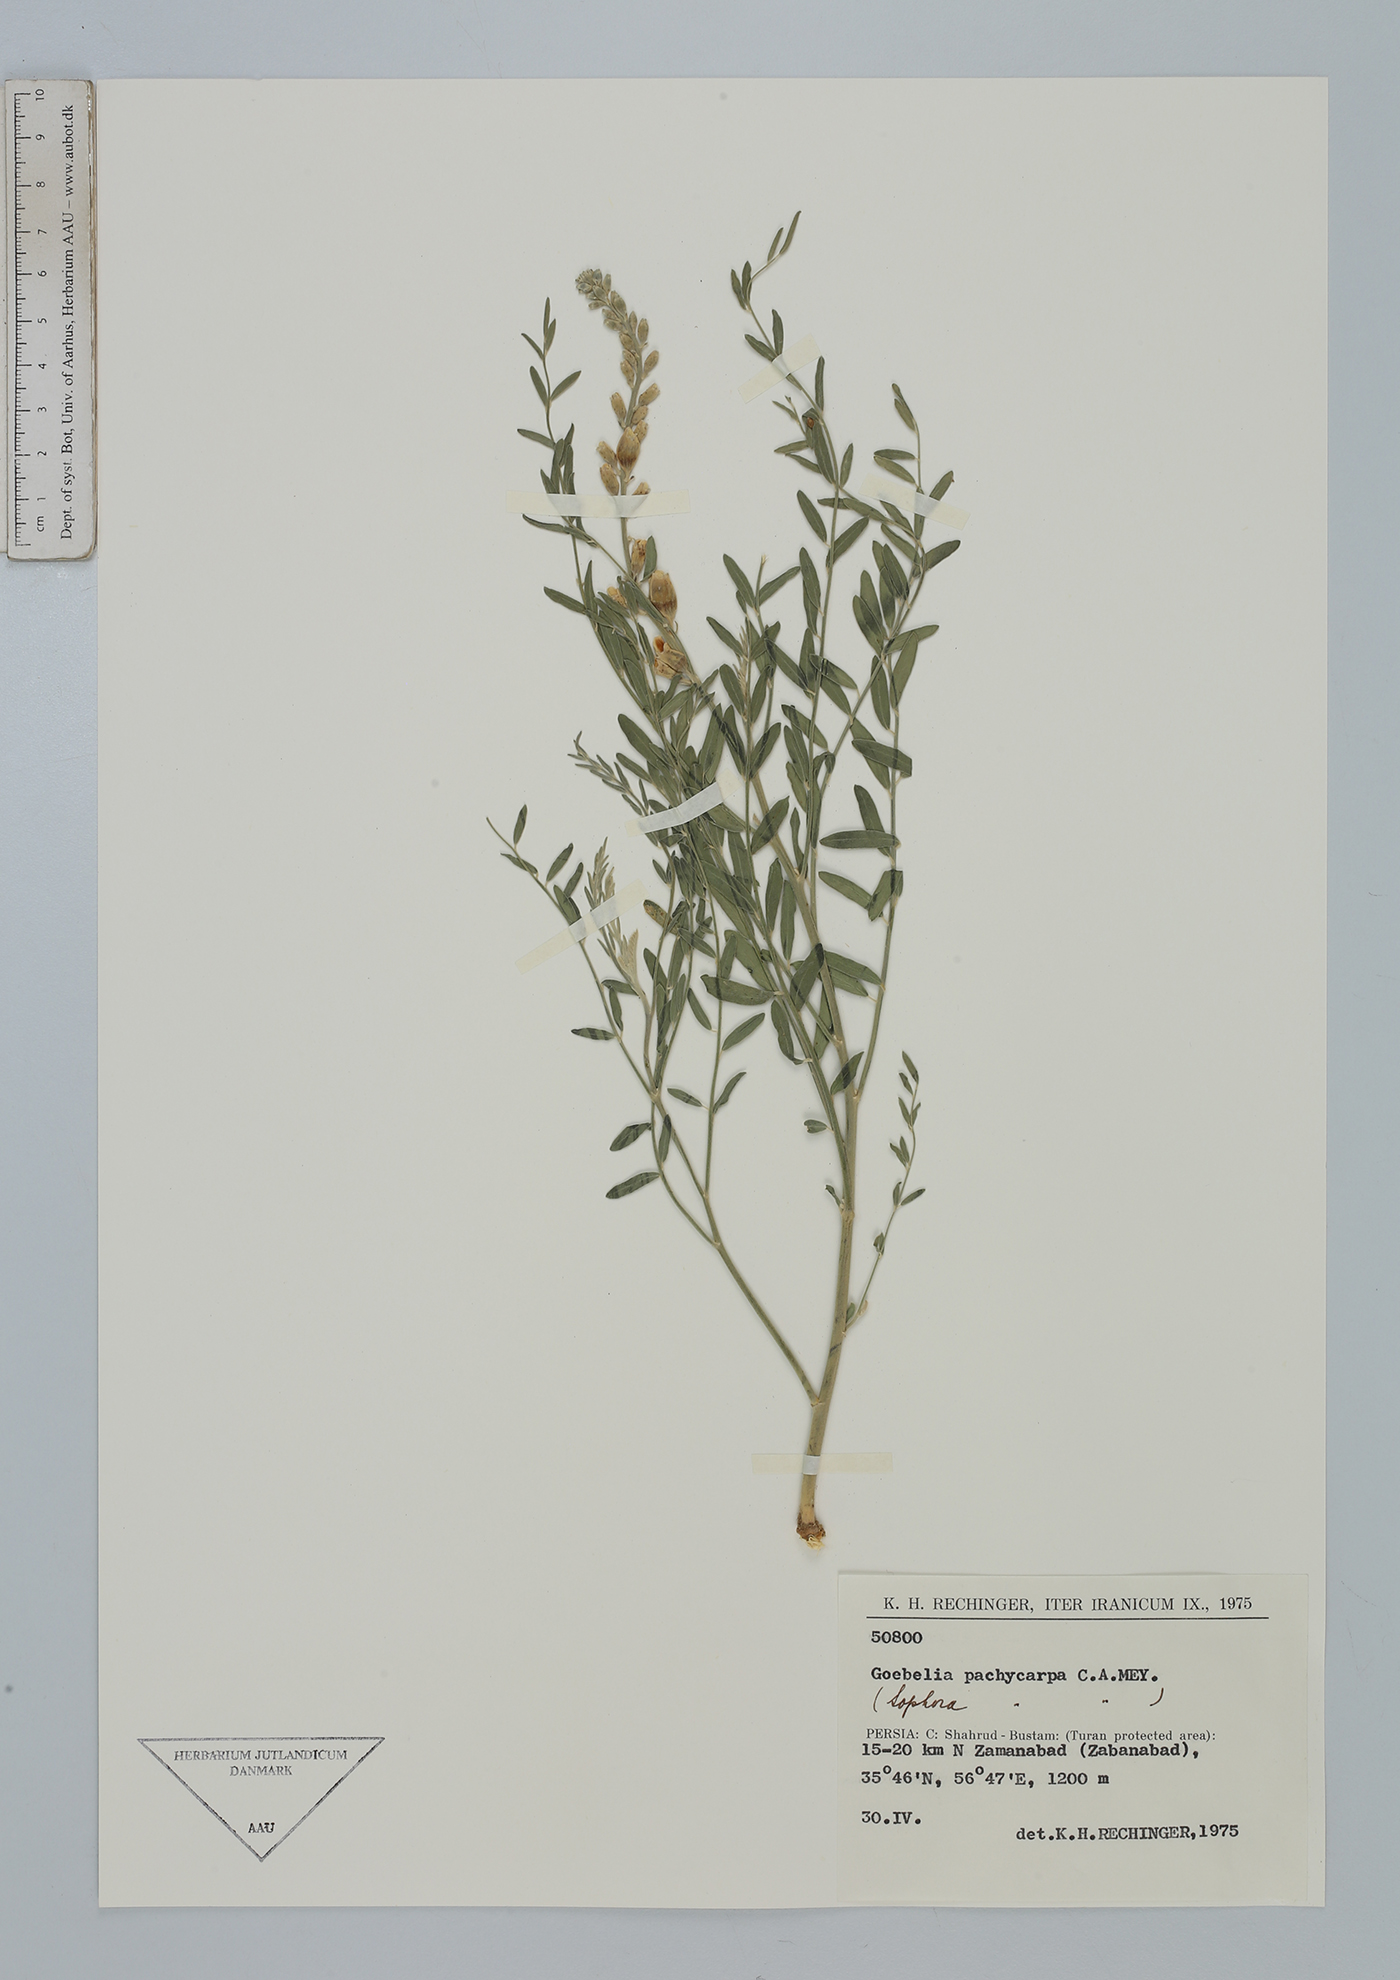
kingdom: Plantae
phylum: Tracheophyta
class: Magnoliopsida
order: Fabales
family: Fabaceae
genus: Sophora
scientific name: Sophora pachycarpa
